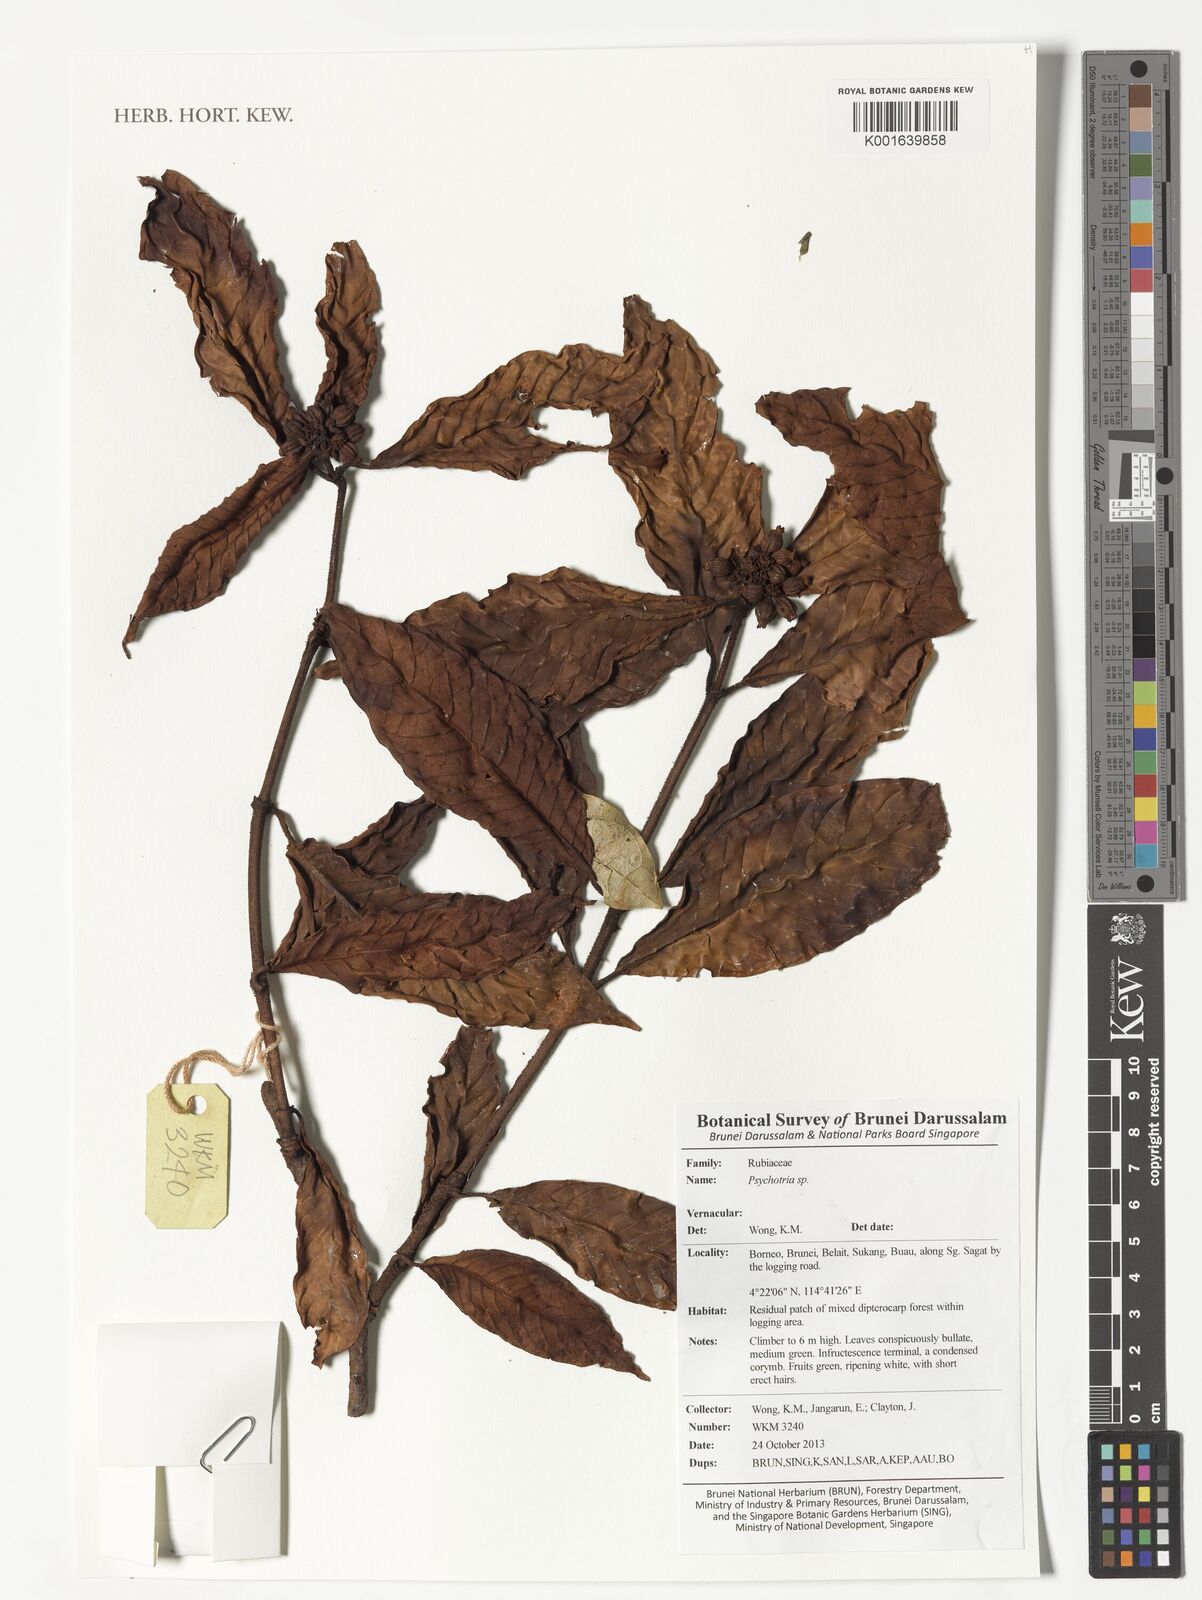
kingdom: Plantae
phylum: Tracheophyta
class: Magnoliopsida
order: Gentianales
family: Rubiaceae
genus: Psychotria
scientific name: Psychotria
